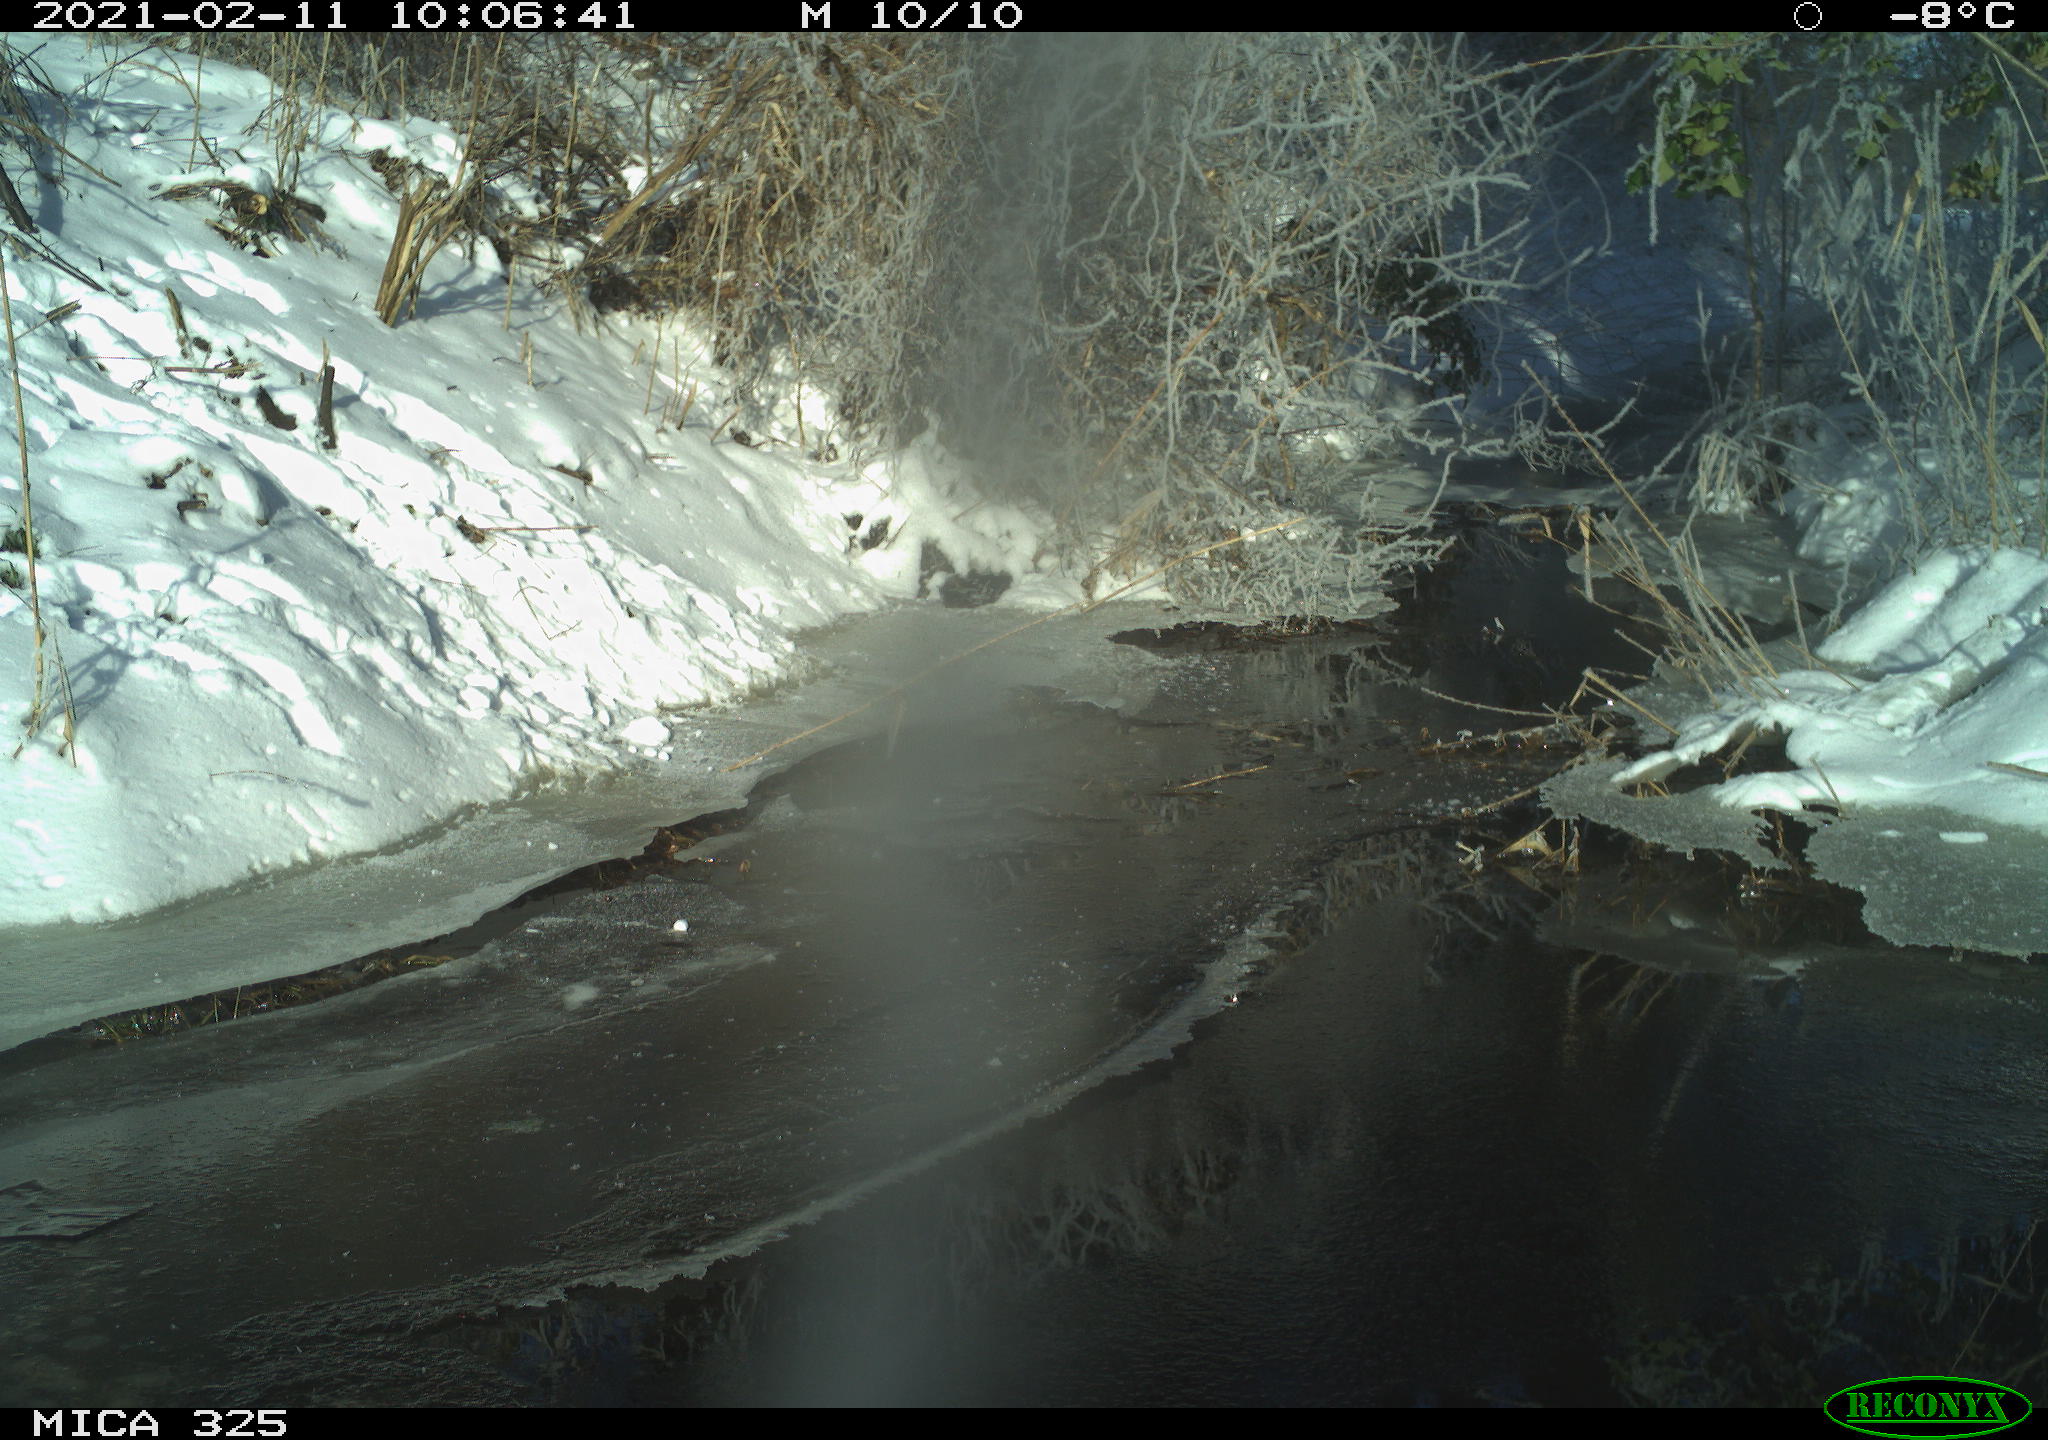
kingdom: Animalia
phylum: Chordata
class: Mammalia
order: Lagomorpha
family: Leporidae
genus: Lepus
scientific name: Lepus europaeus
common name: European hare
